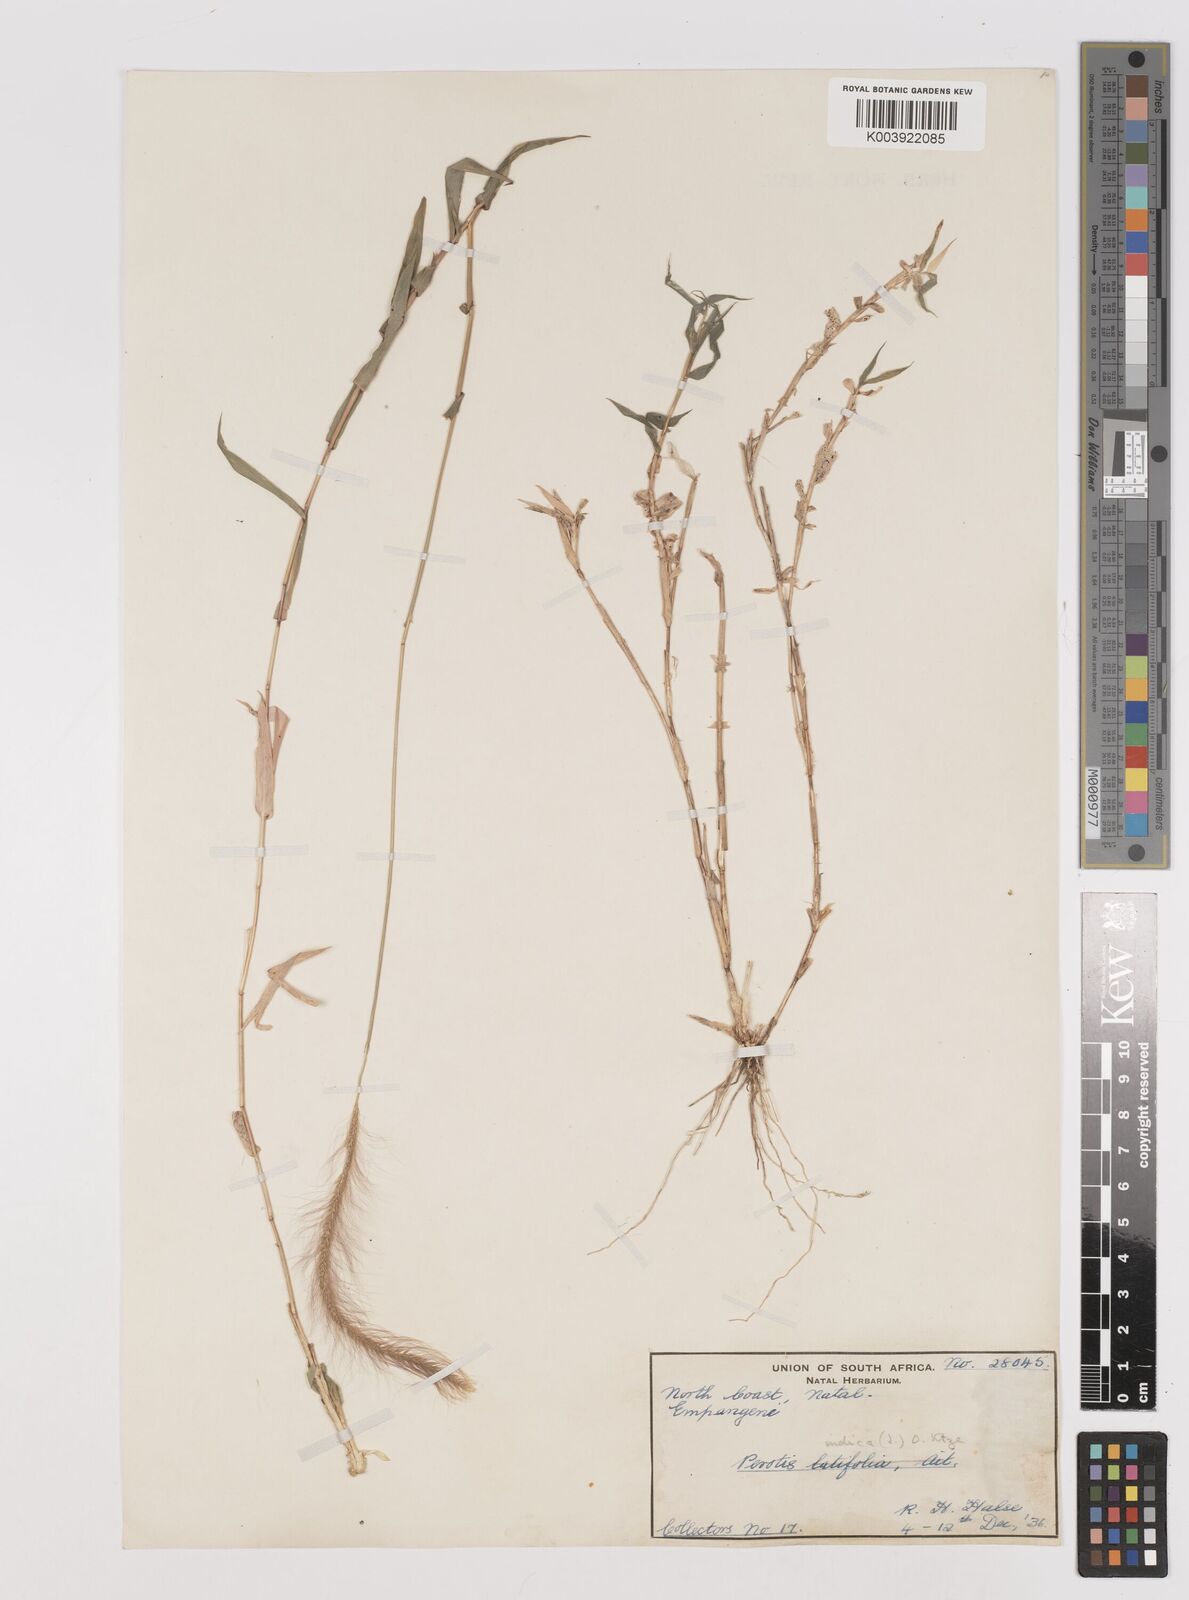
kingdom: Plantae
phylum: Tracheophyta
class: Liliopsida
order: Poales
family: Poaceae
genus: Perotis
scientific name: Perotis patens
